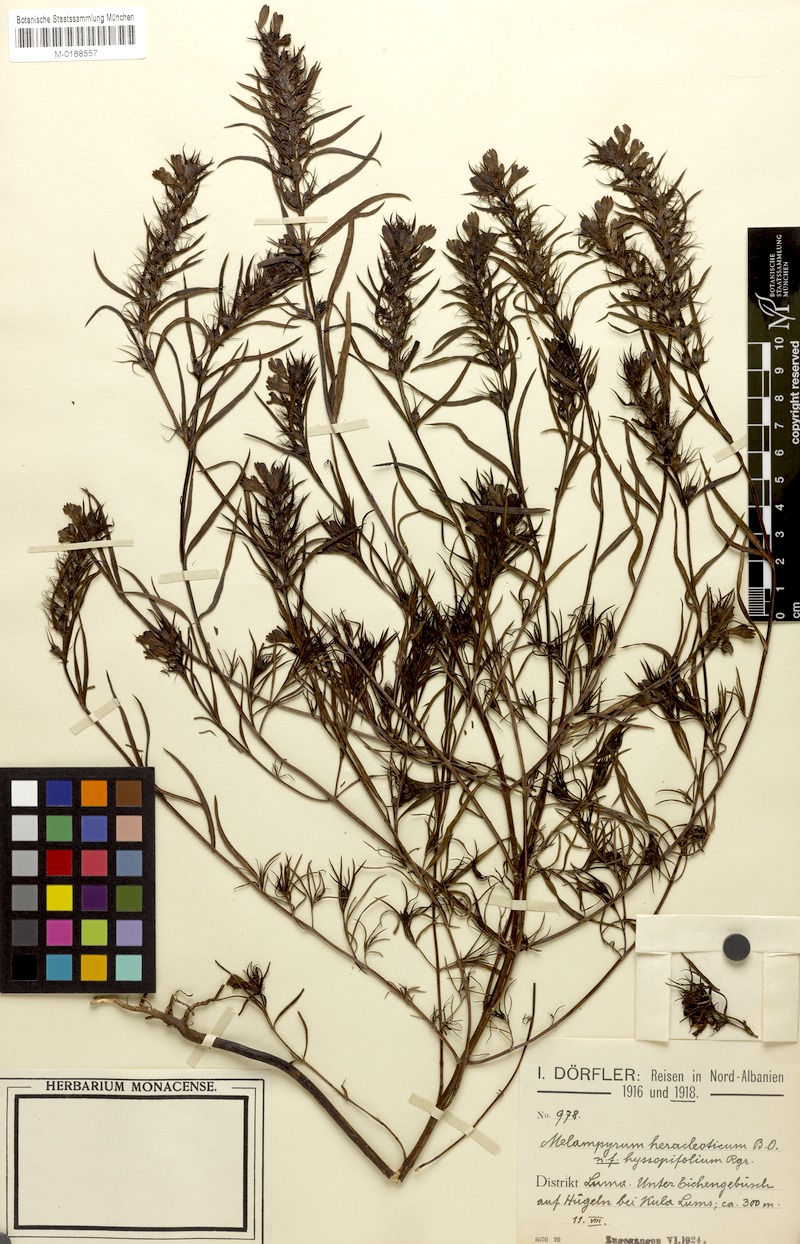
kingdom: Plantae
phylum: Tracheophyta
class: Magnoliopsida
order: Lamiales
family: Orobanchaceae
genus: Melampyrum
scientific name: Melampyrum heracleoticum
